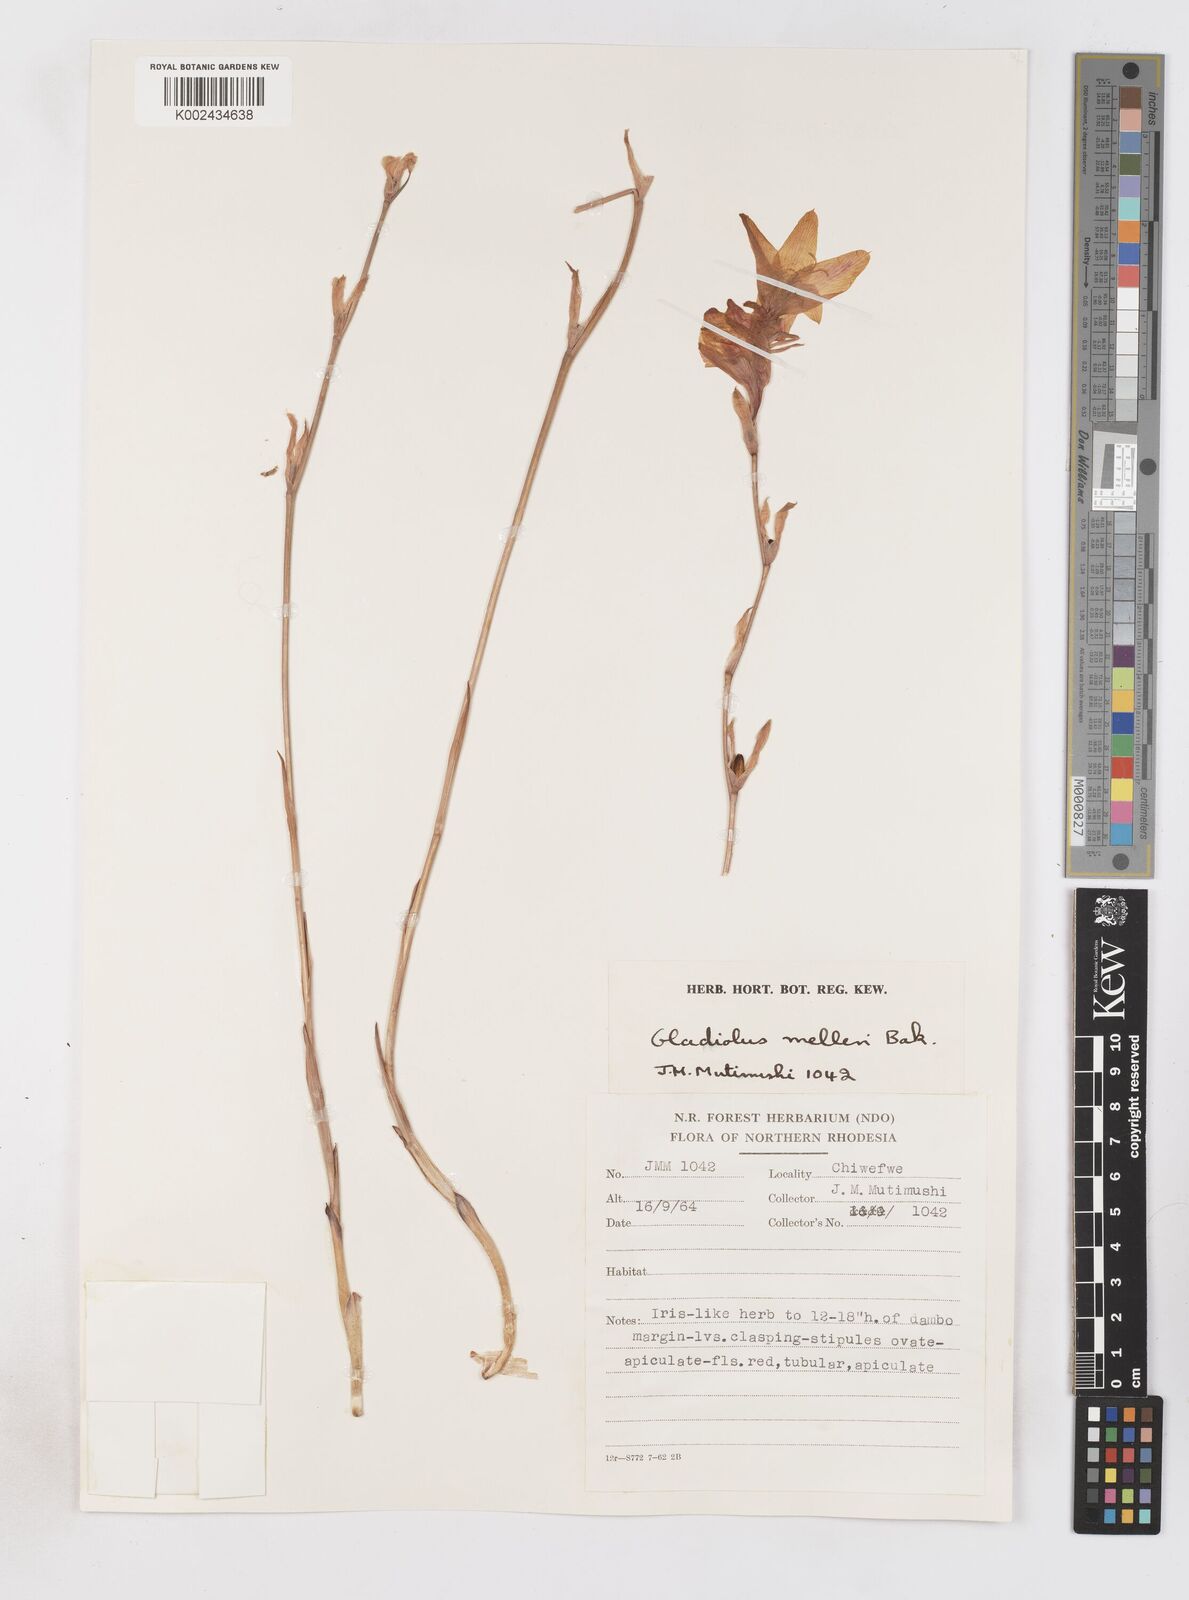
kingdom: Plantae
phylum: Tracheophyta
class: Liliopsida
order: Asparagales
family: Iridaceae
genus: Gladiolus
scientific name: Gladiolus melleri
